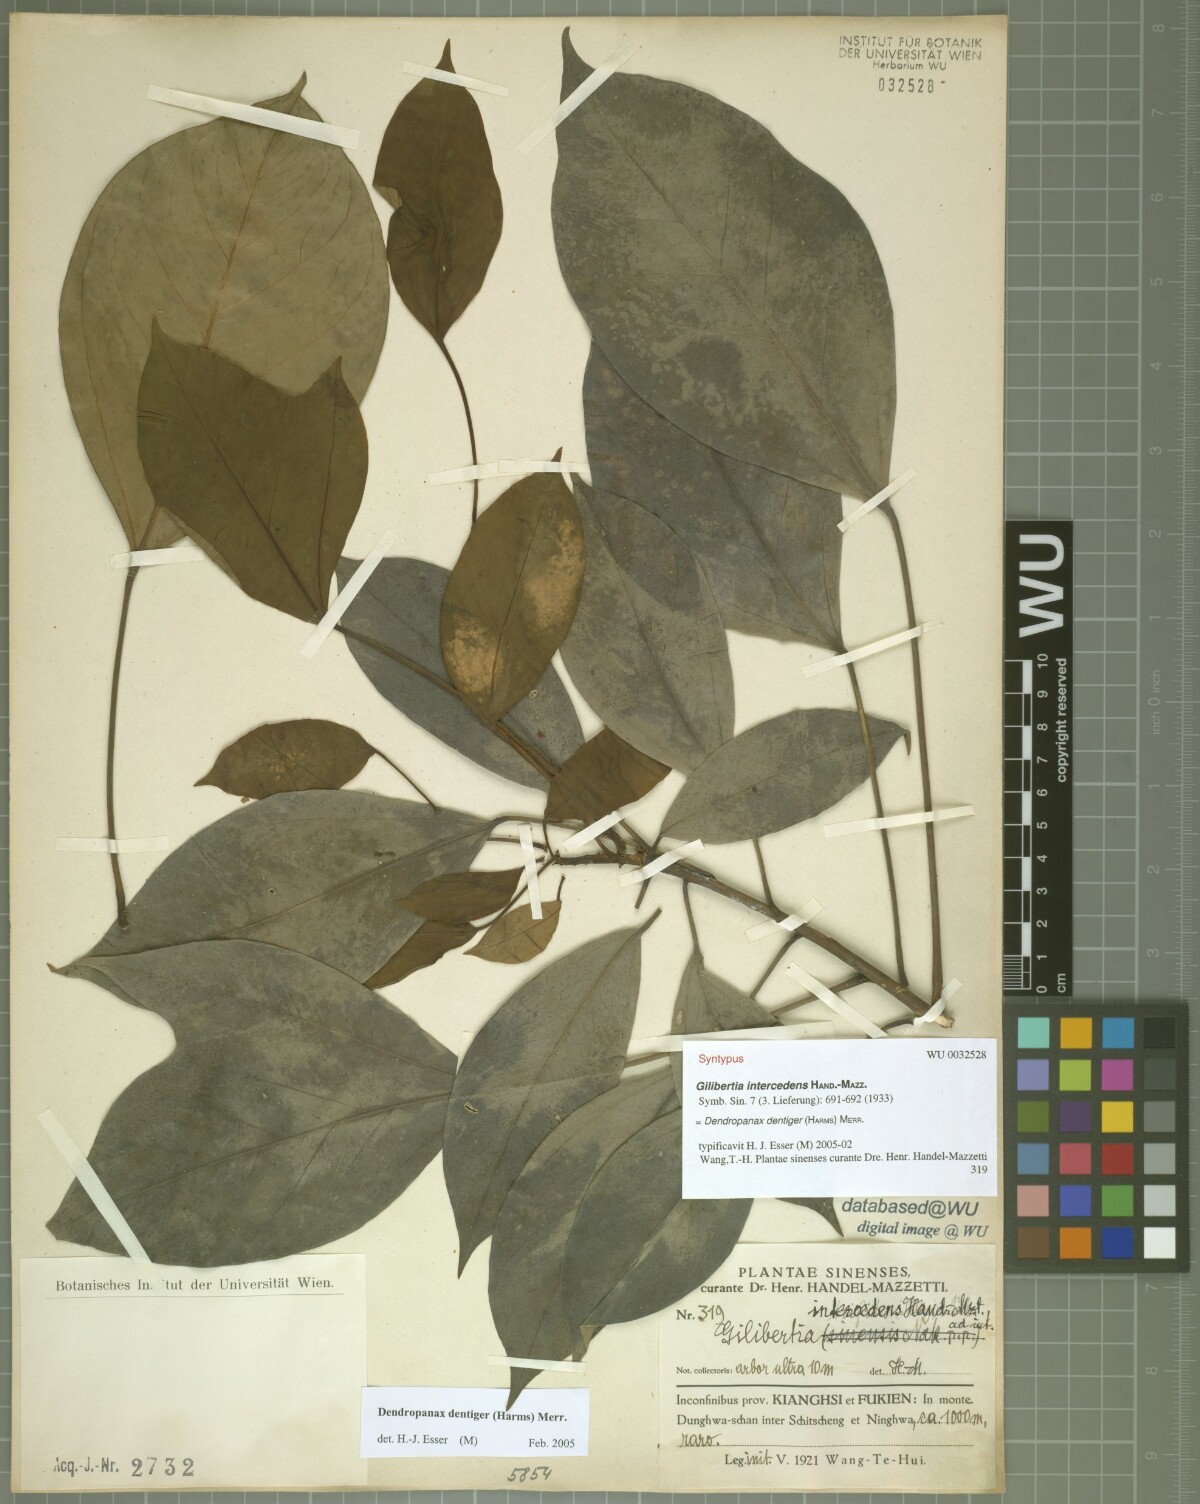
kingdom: Plantae
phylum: Tracheophyta
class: Magnoliopsida
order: Apiales
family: Araliaceae
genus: Dendropanax
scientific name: Dendropanax dentigerus
